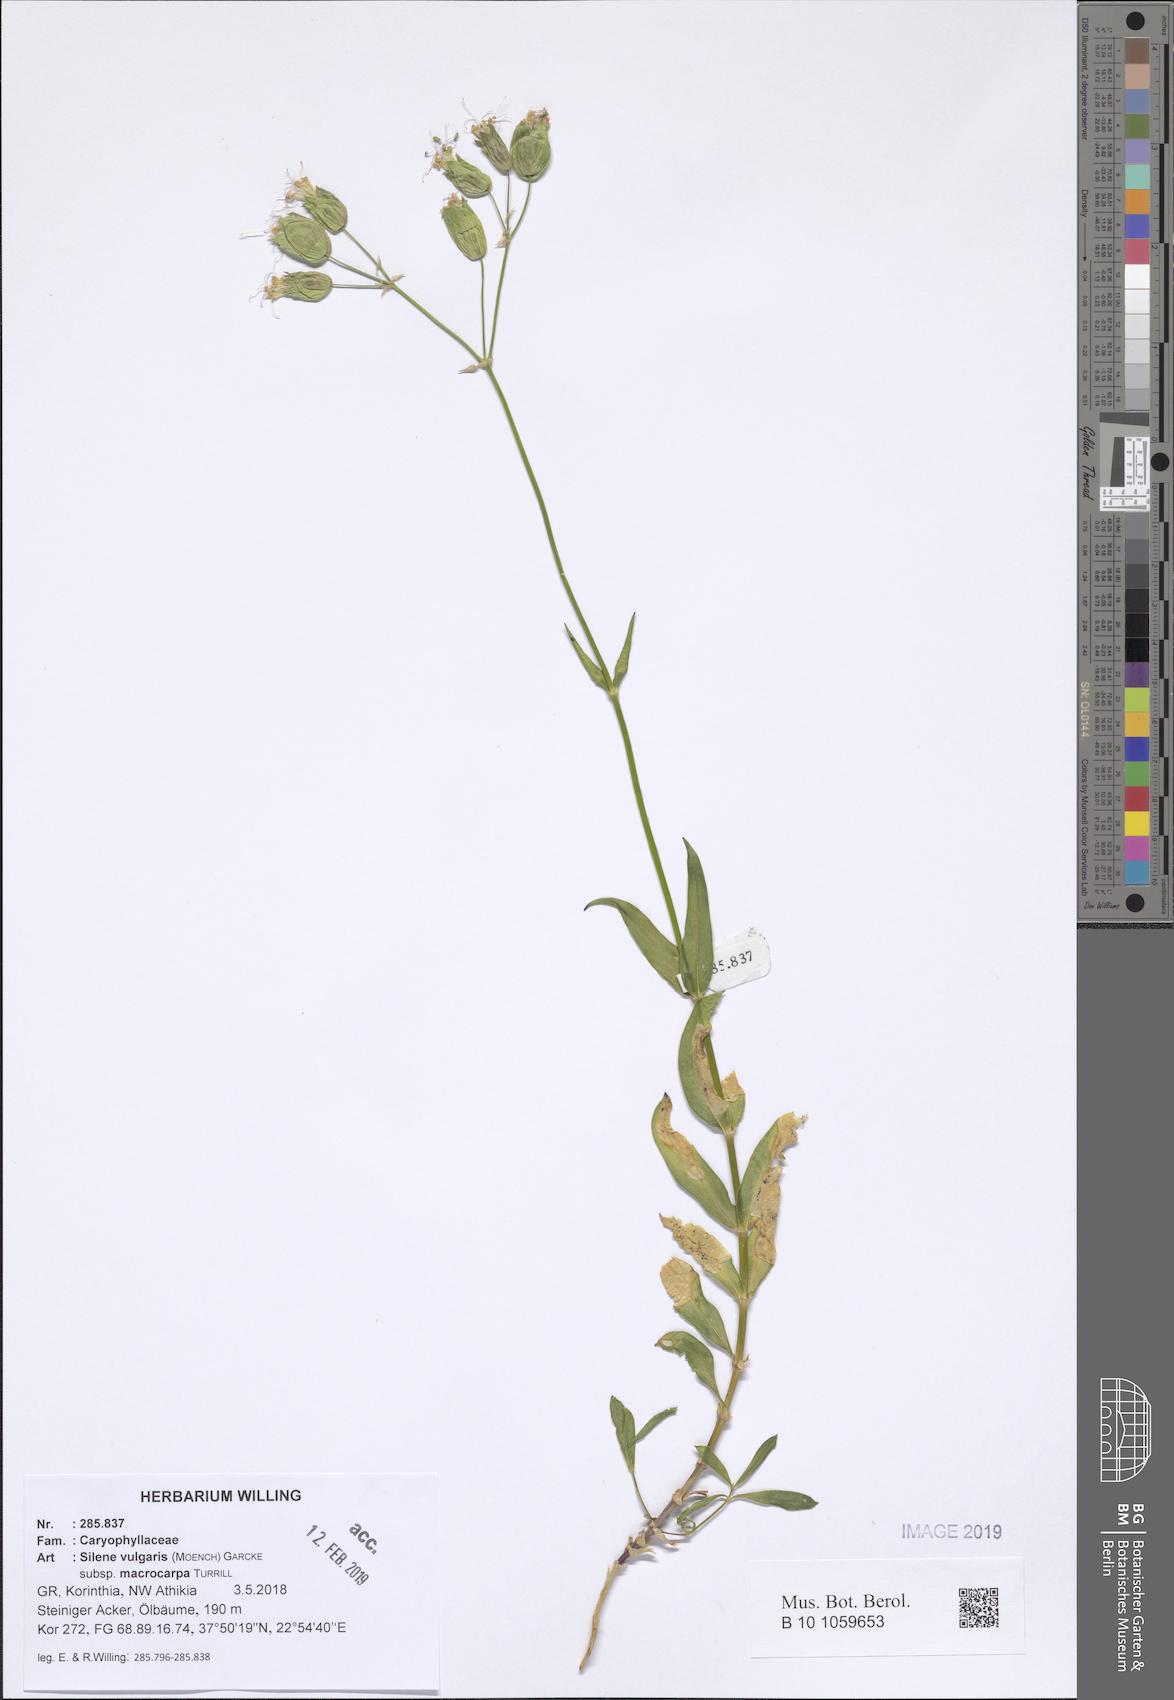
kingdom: Plantae
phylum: Tracheophyta
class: Magnoliopsida
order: Caryophyllales
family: Caryophyllaceae
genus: Silene
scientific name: Silene vulgaris
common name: Bladder campion
